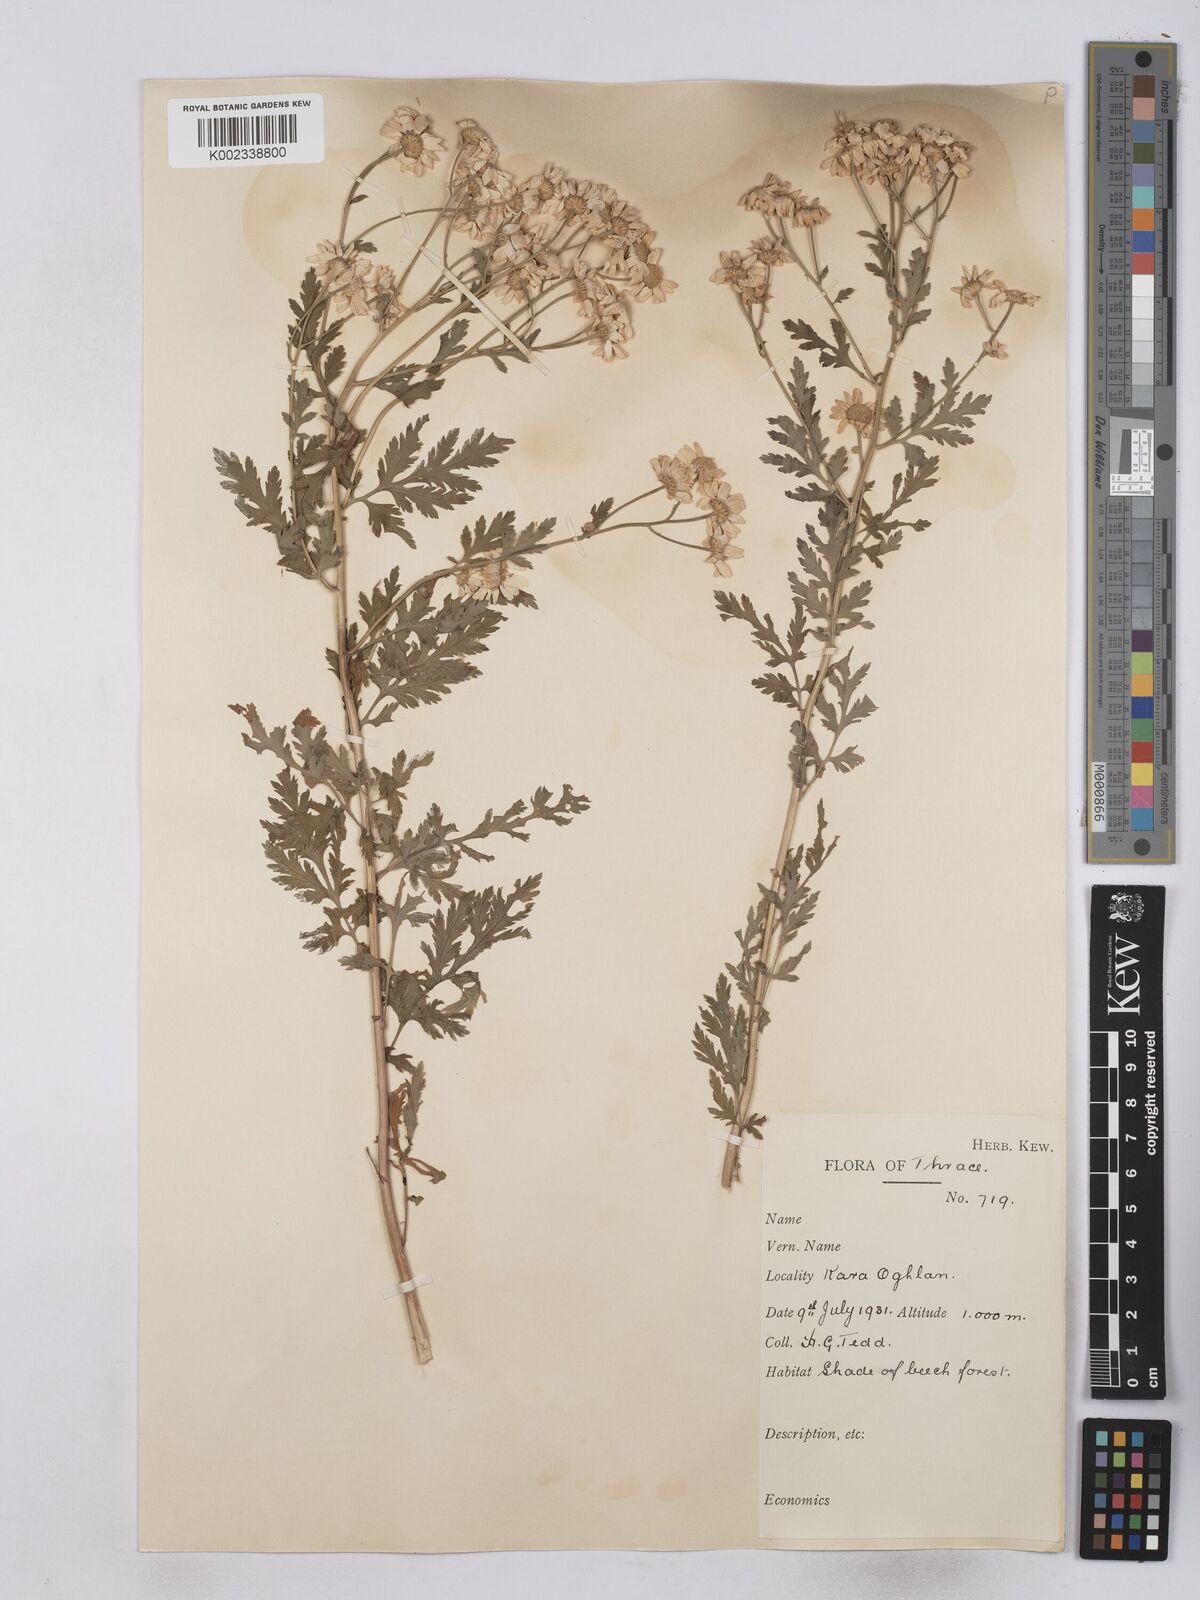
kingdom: Plantae
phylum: Tracheophyta
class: Magnoliopsida
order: Asterales
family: Asteraceae
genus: Tanacetum
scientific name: Tanacetum parthenium
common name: Feverfew
